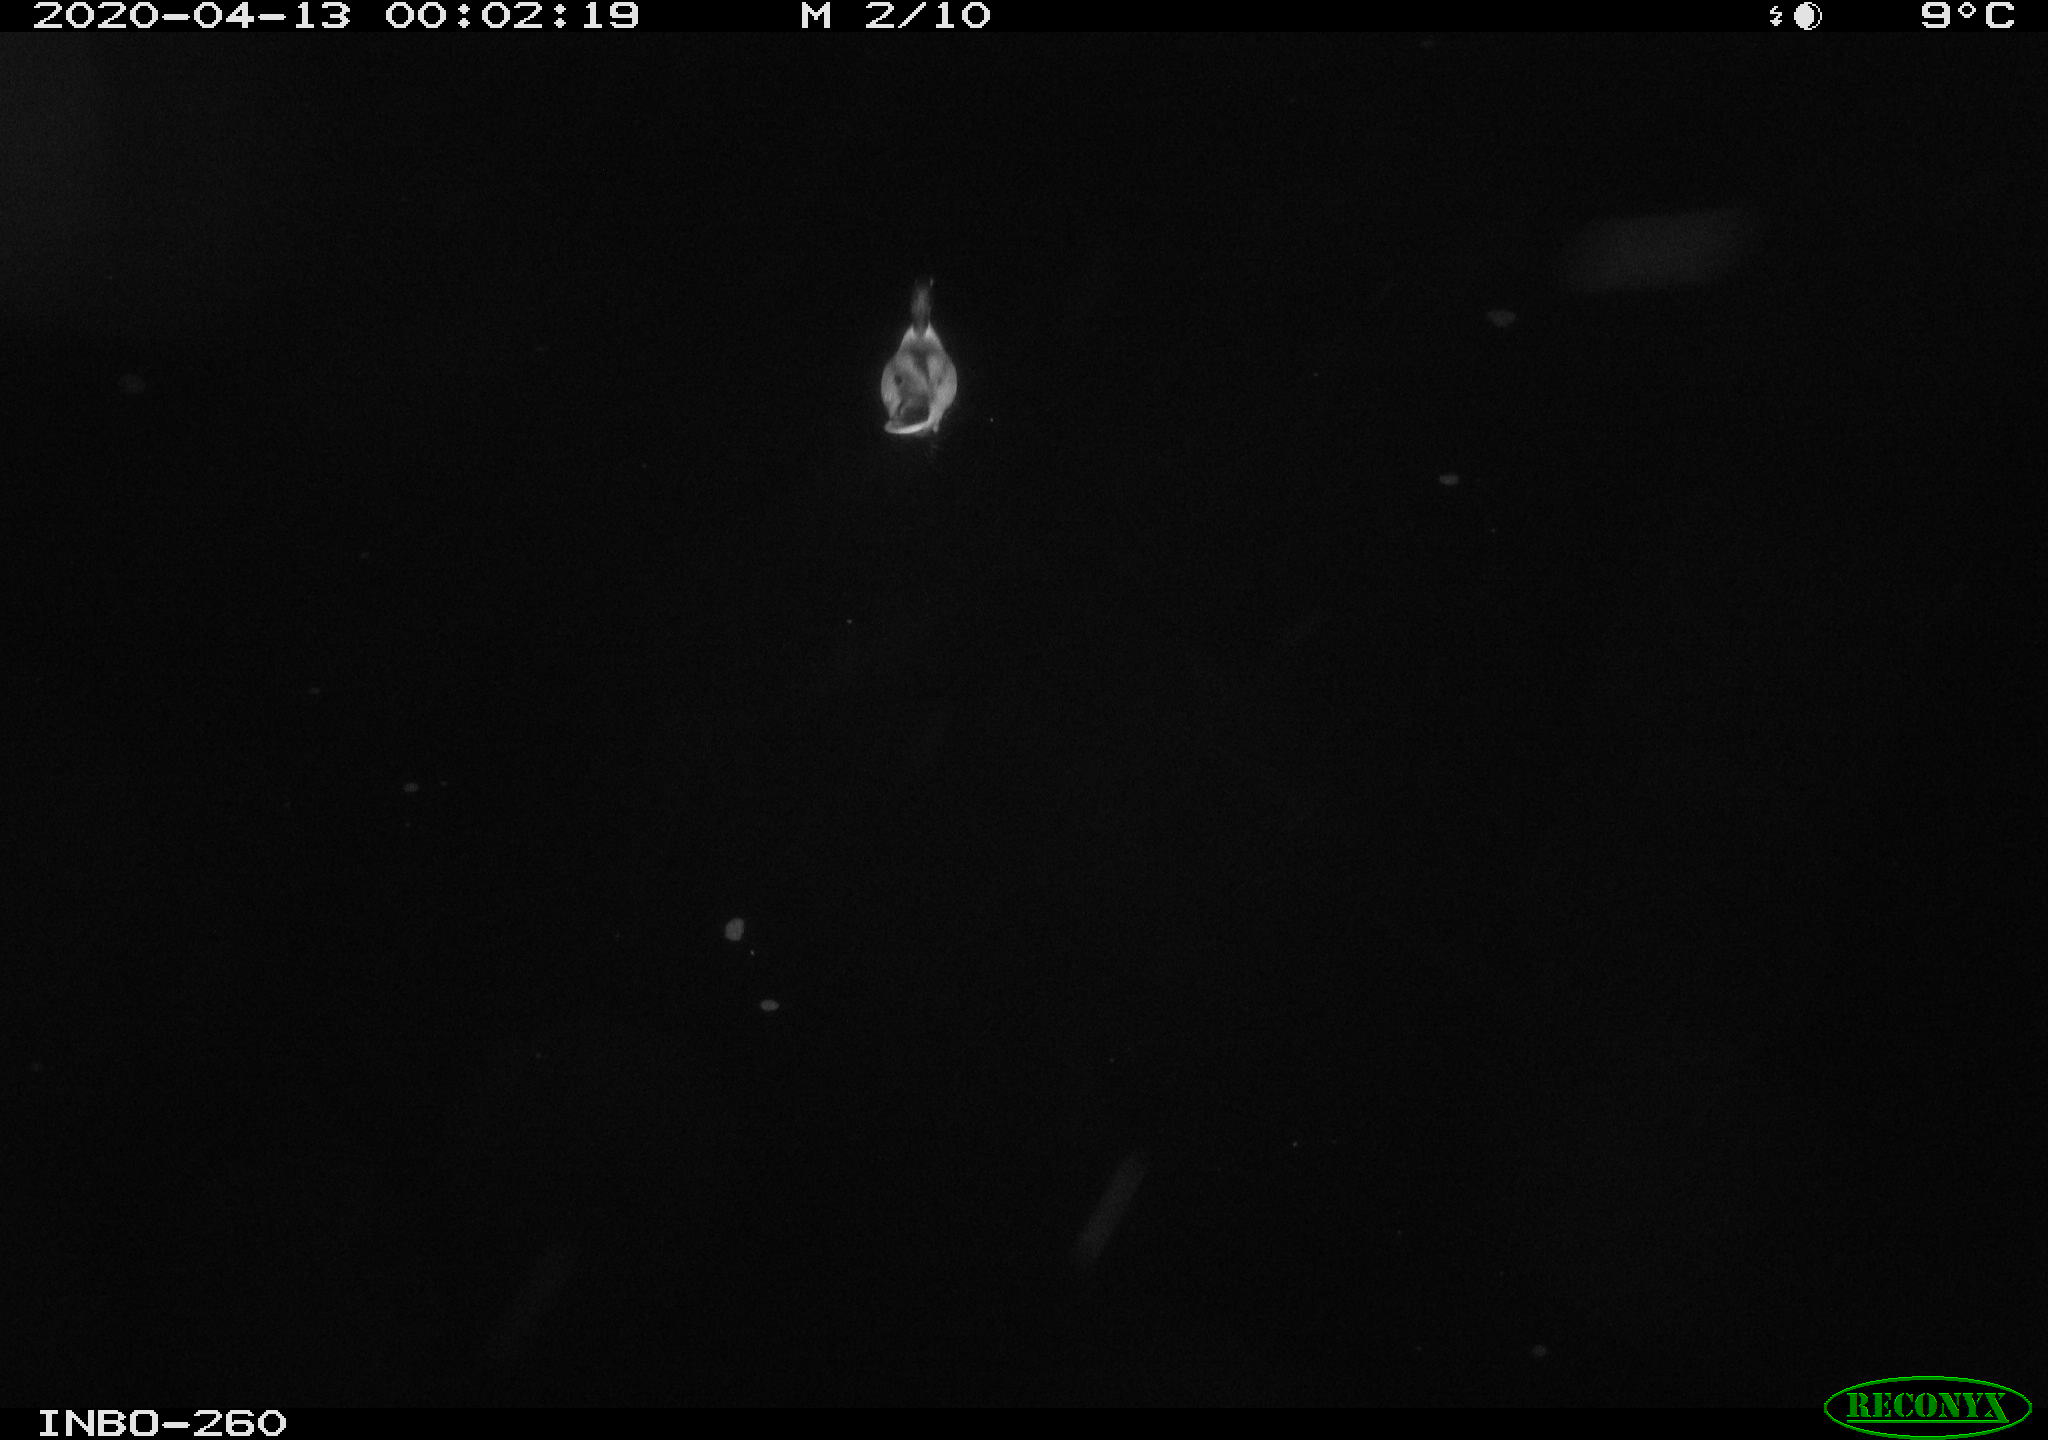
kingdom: Animalia
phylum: Chordata
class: Aves
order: Anseriformes
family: Anatidae
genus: Anas
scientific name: Anas platyrhynchos
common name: Mallard
